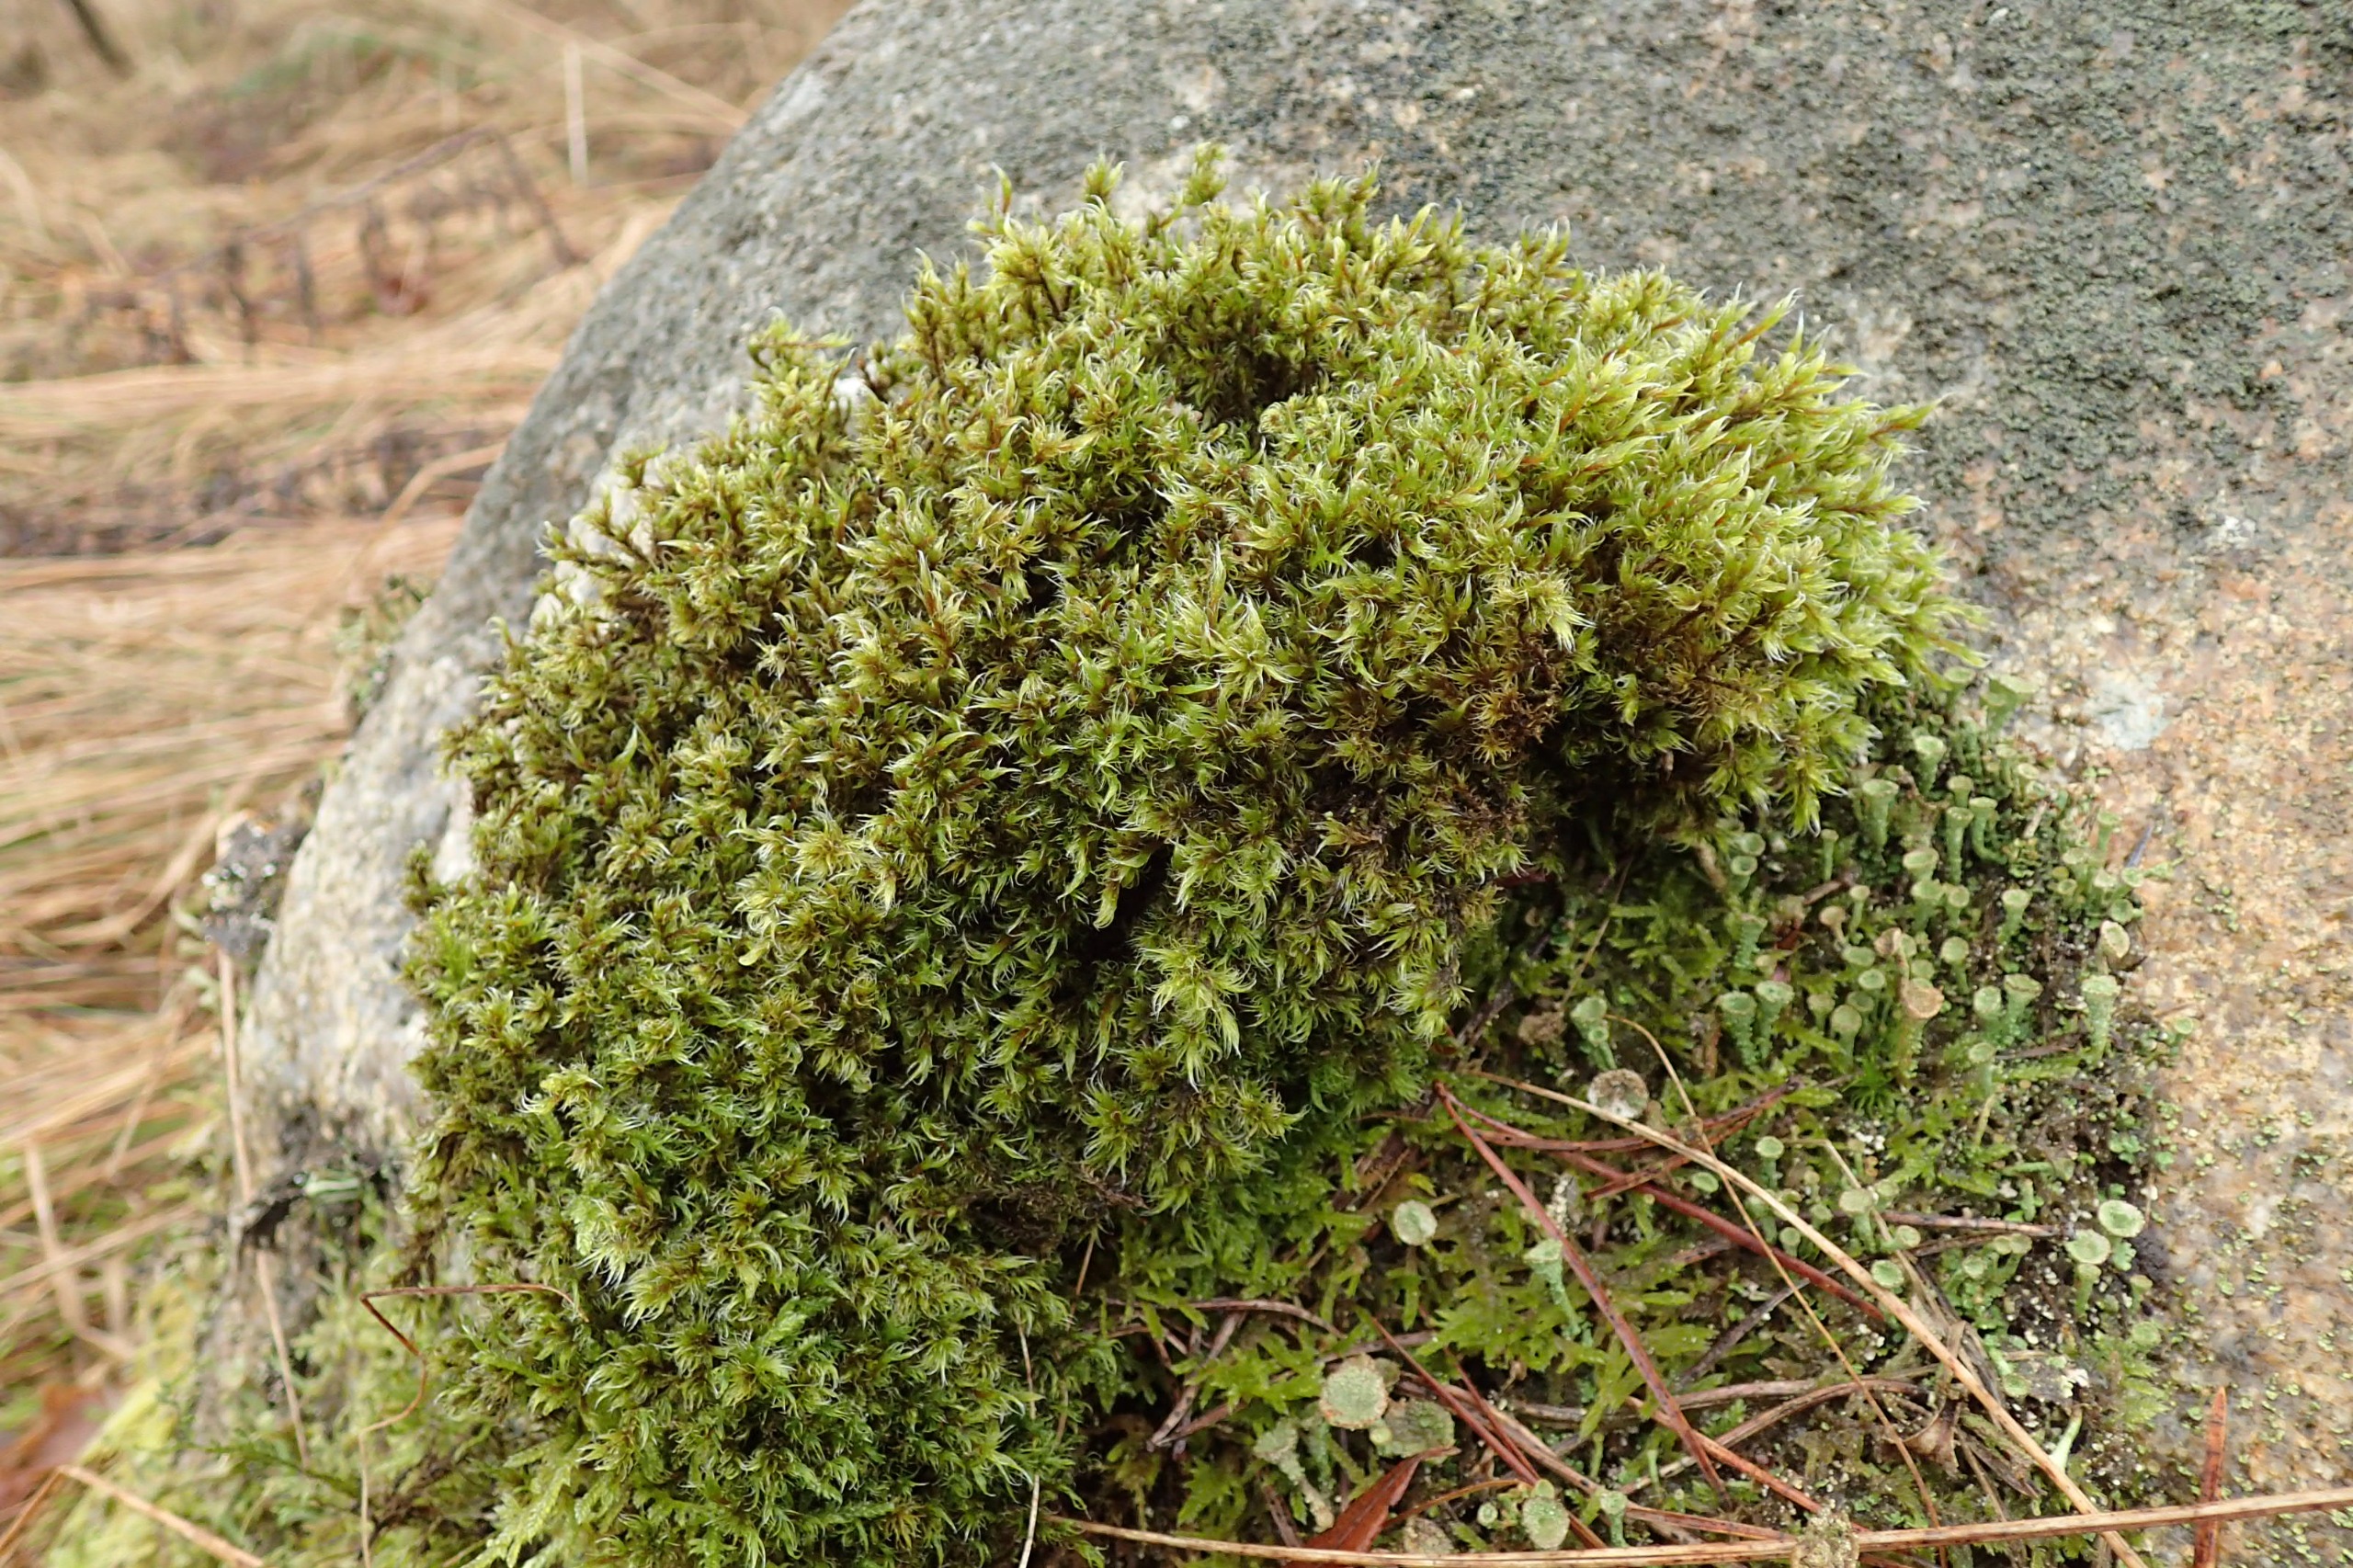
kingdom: Plantae
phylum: Bryophyta
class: Bryopsida
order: Grimmiales
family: Grimmiaceae
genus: Racomitrium
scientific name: Racomitrium lanuginosum
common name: Stor børstemos
